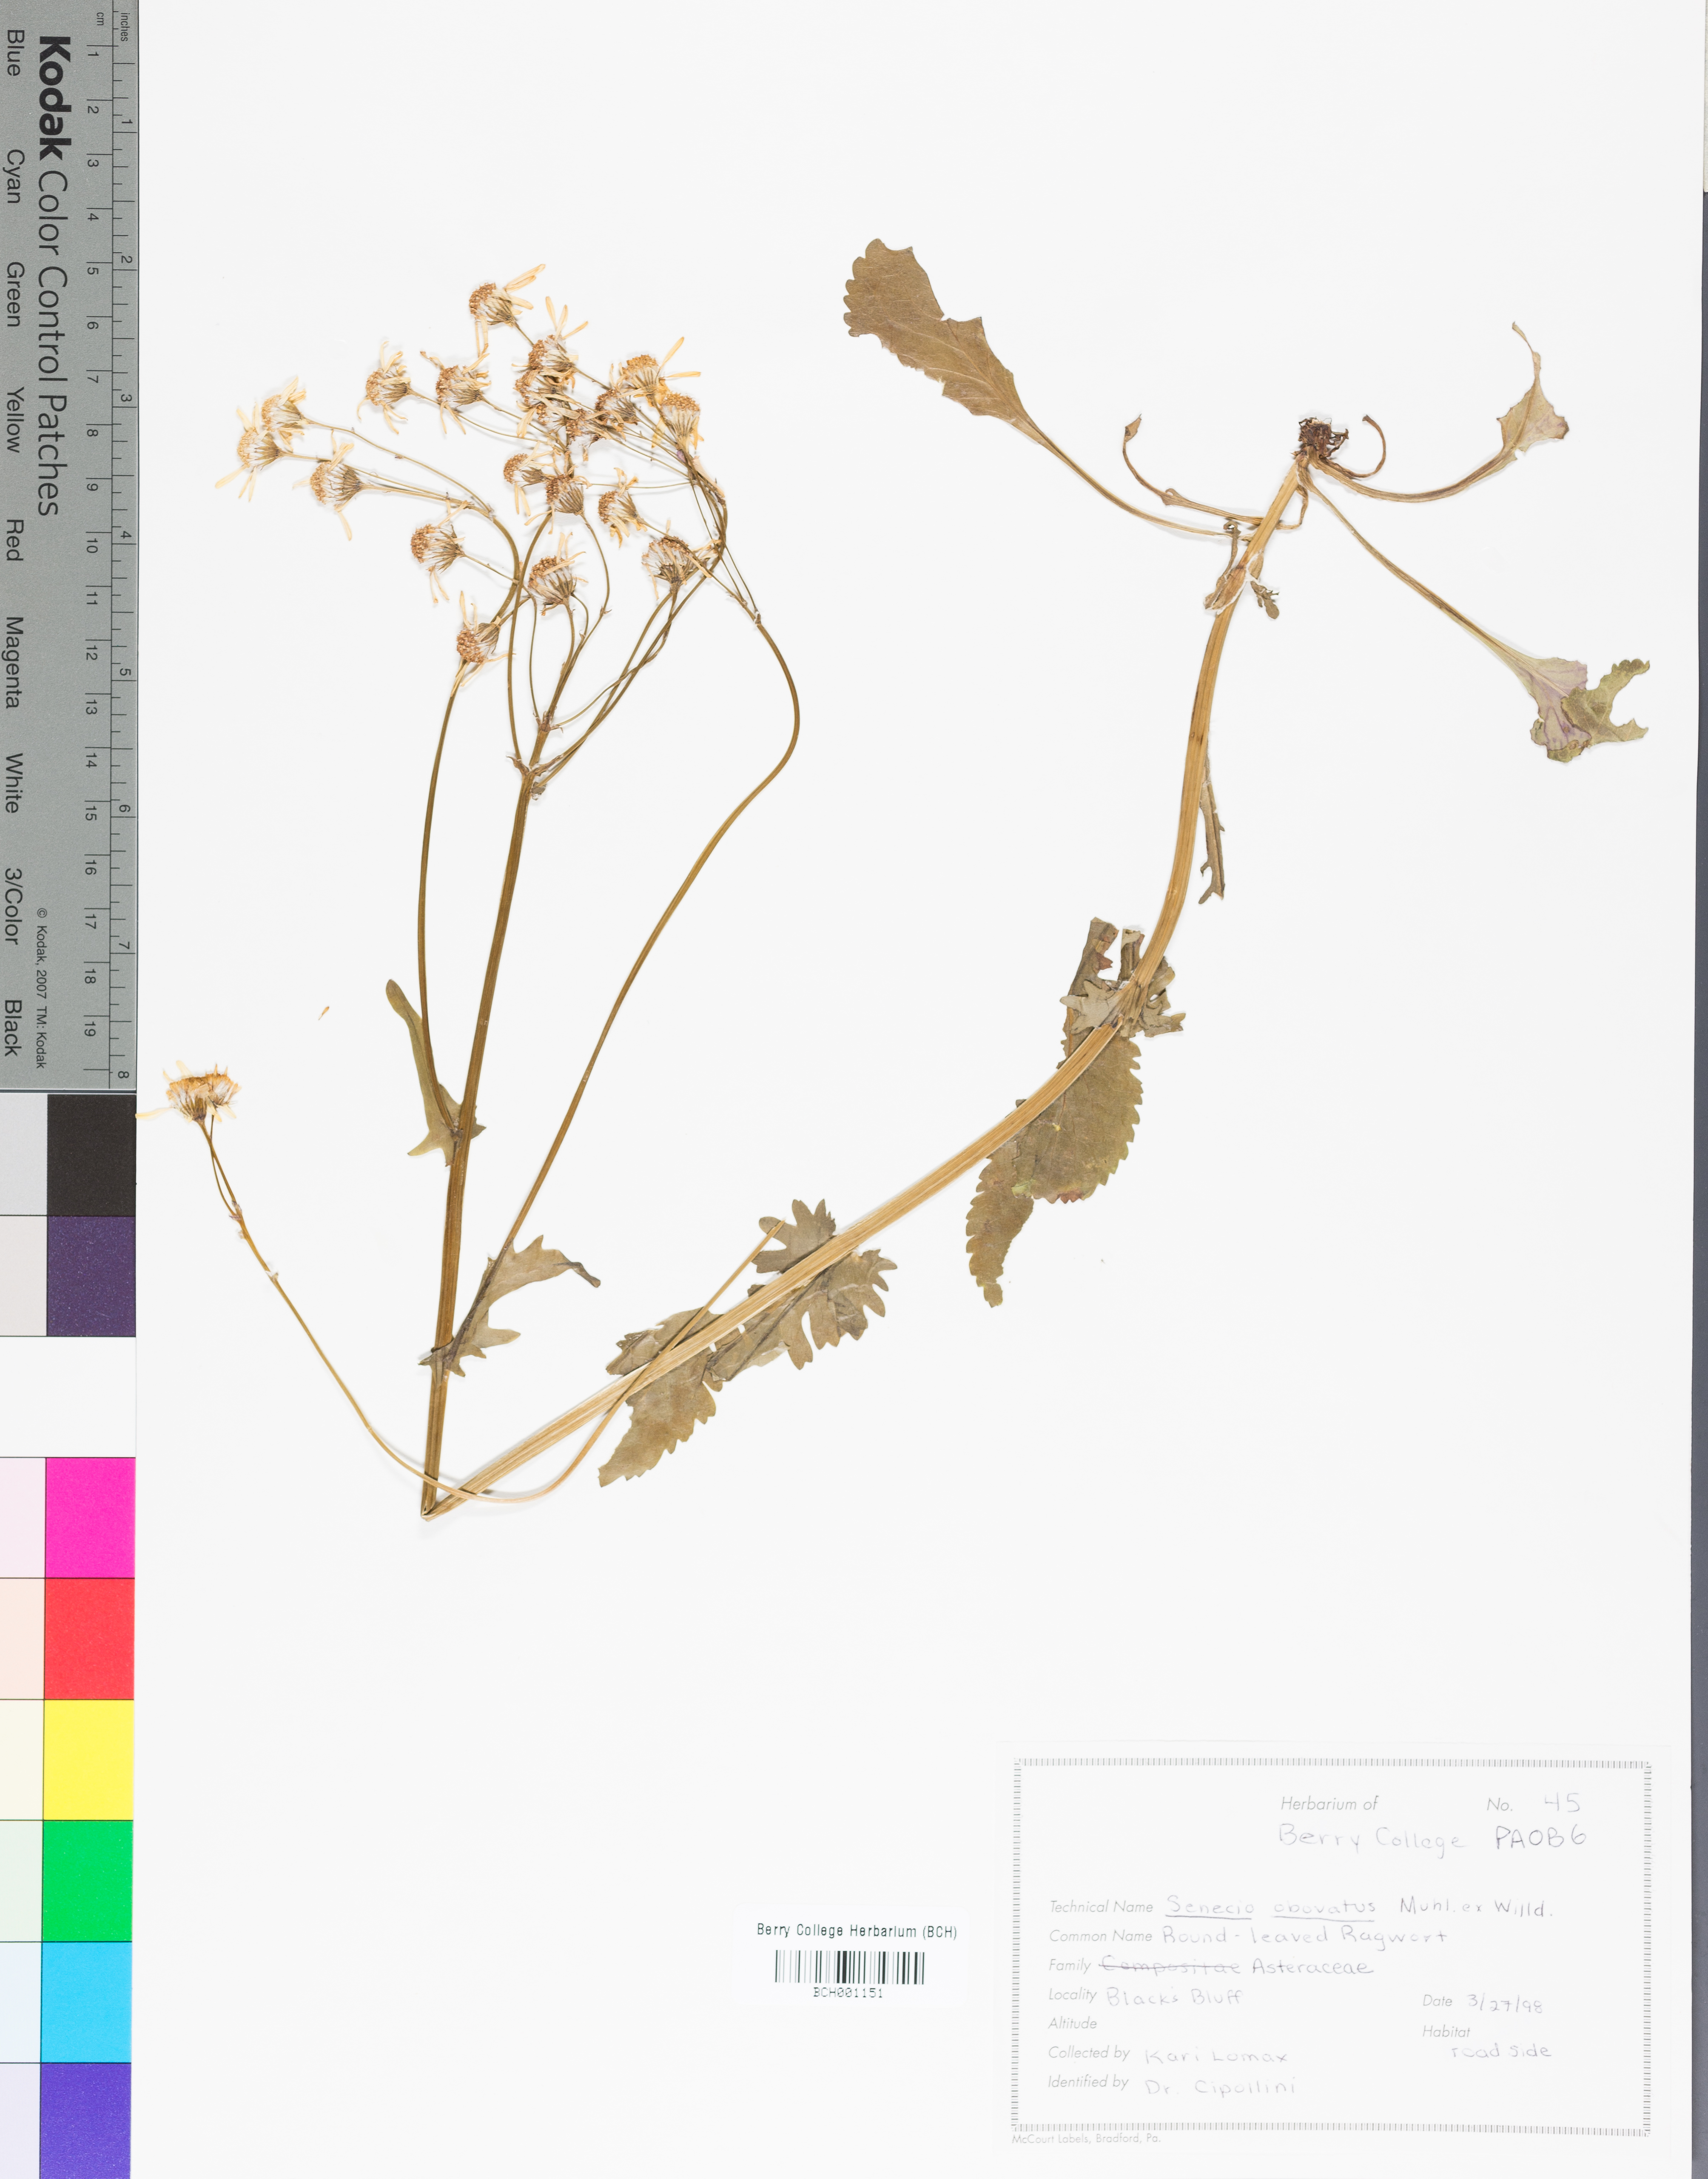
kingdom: Plantae
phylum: Tracheophyta
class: Magnoliopsida
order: Asterales
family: Asteraceae
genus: Packera
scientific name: Packera obovata
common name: Round-leaf ragwort
